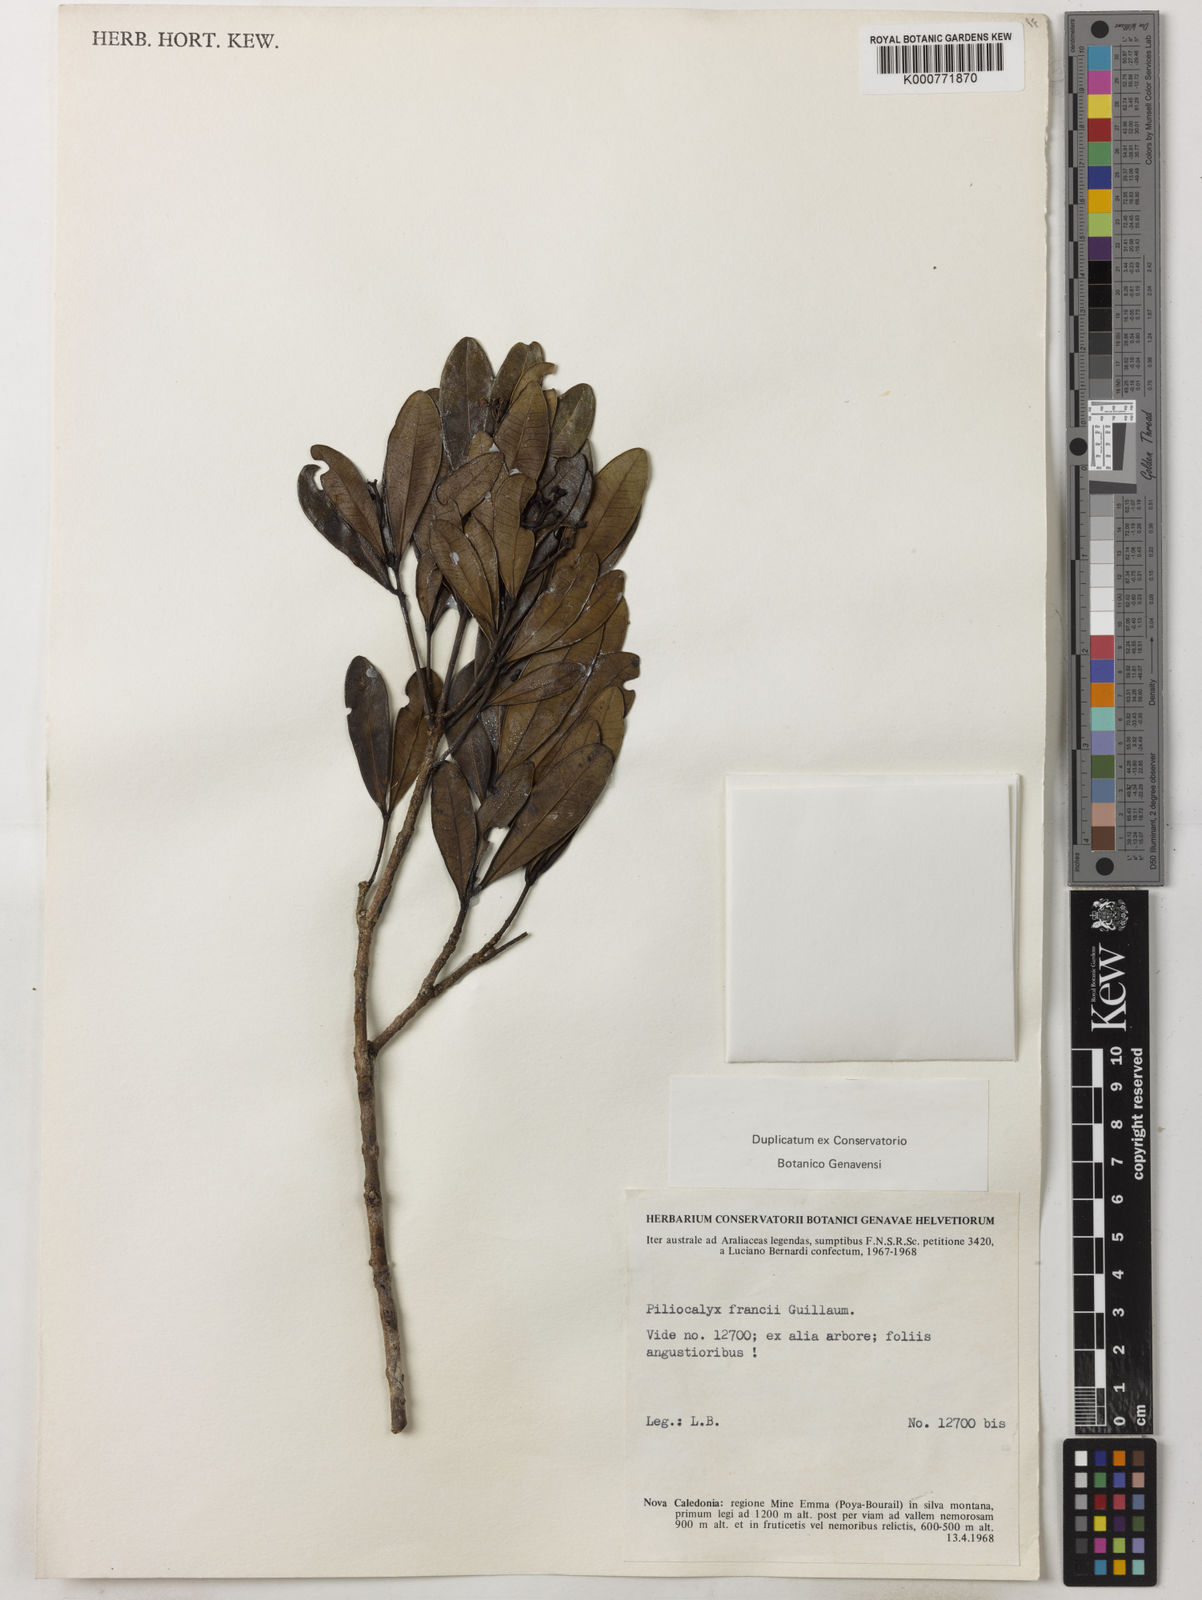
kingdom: Plantae
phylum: Tracheophyta
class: Magnoliopsida
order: Myrtales
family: Myrtaceae
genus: Syzygium
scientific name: Syzygium francii
